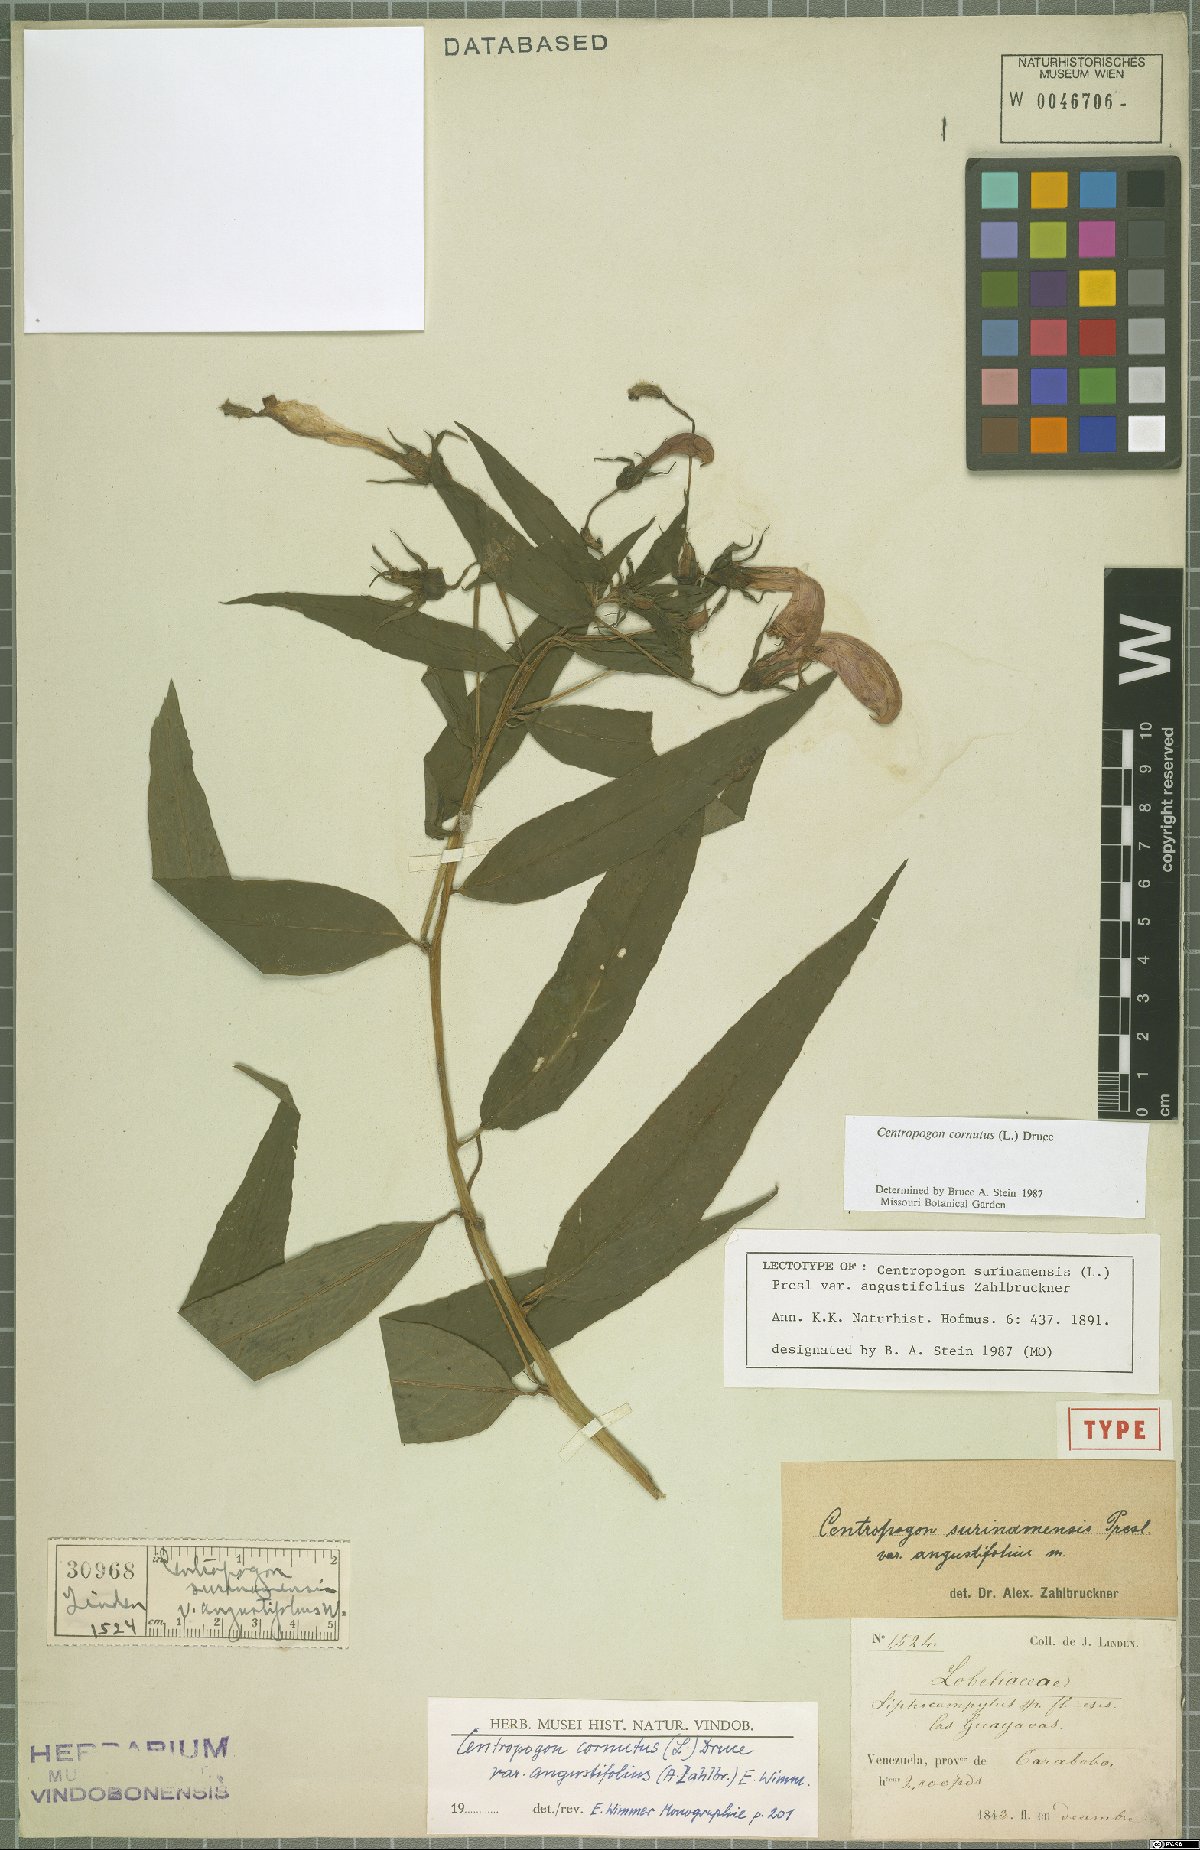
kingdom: Plantae
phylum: Tracheophyta
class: Magnoliopsida
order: Asterales
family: Campanulaceae
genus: Centropogon
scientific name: Centropogon cornutus
